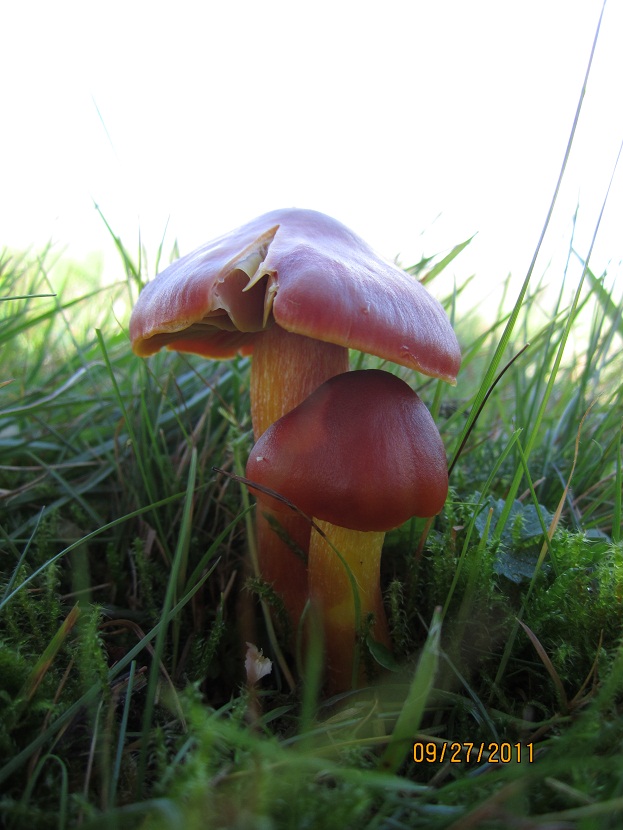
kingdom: Fungi
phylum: Basidiomycota
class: Agaricomycetes
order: Agaricales
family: Hygrophoraceae
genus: Hygrocybe
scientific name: Hygrocybe punicea
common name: skarlagen-vokshat
